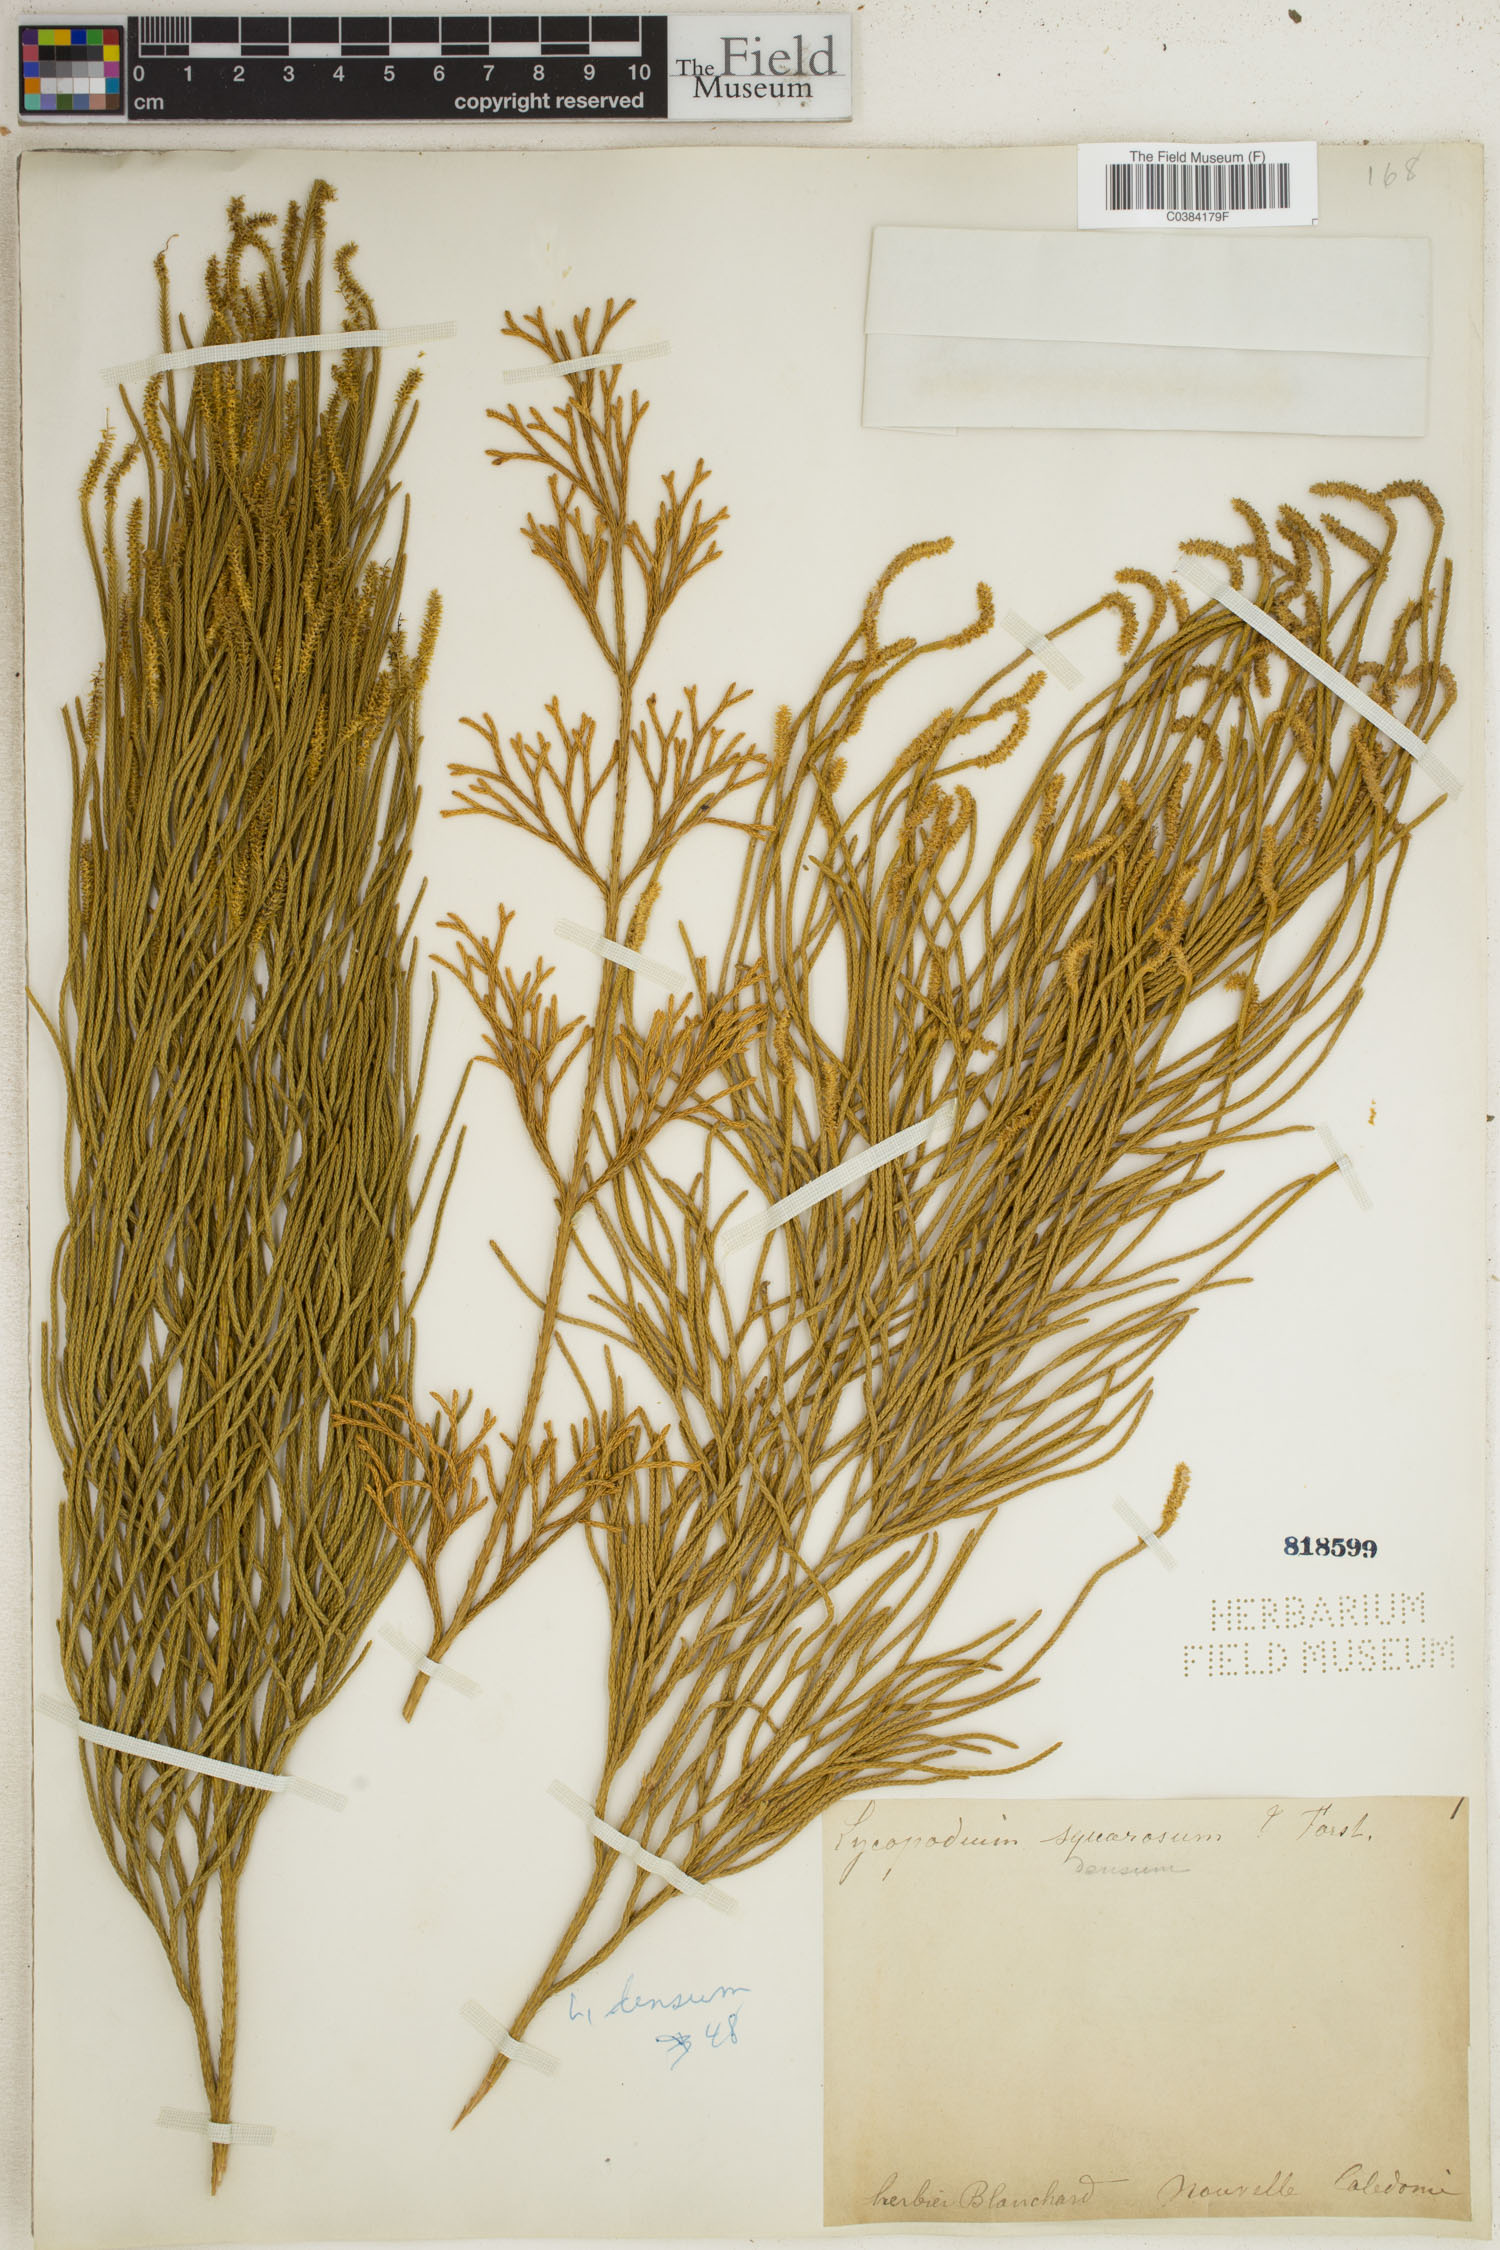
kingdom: Plantae
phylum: Tracheophyta
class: Lycopodiopsida
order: Lycopodiales
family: Lycopodiaceae
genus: Huperzia
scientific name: Huperzia selago
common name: Northern firmoss
